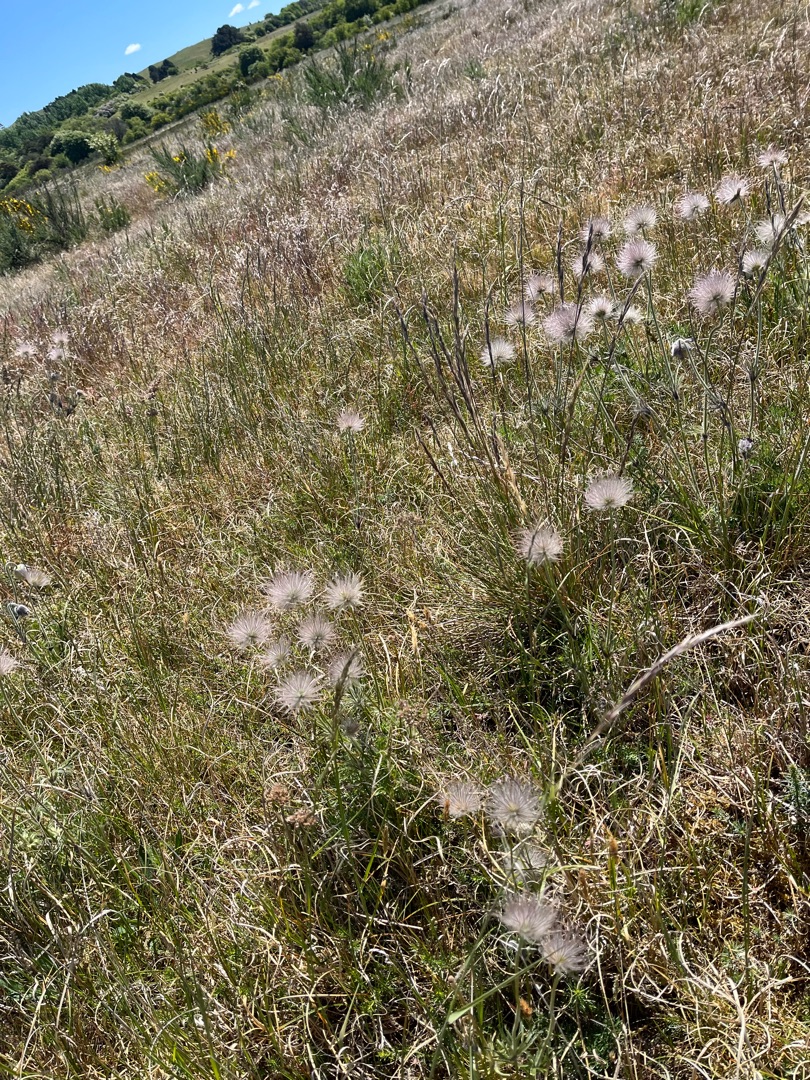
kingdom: Plantae
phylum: Tracheophyta
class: Magnoliopsida
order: Ranunculales
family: Ranunculaceae
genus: Pulsatilla
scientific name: Pulsatilla pratensis
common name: Nikkende kobjælde
